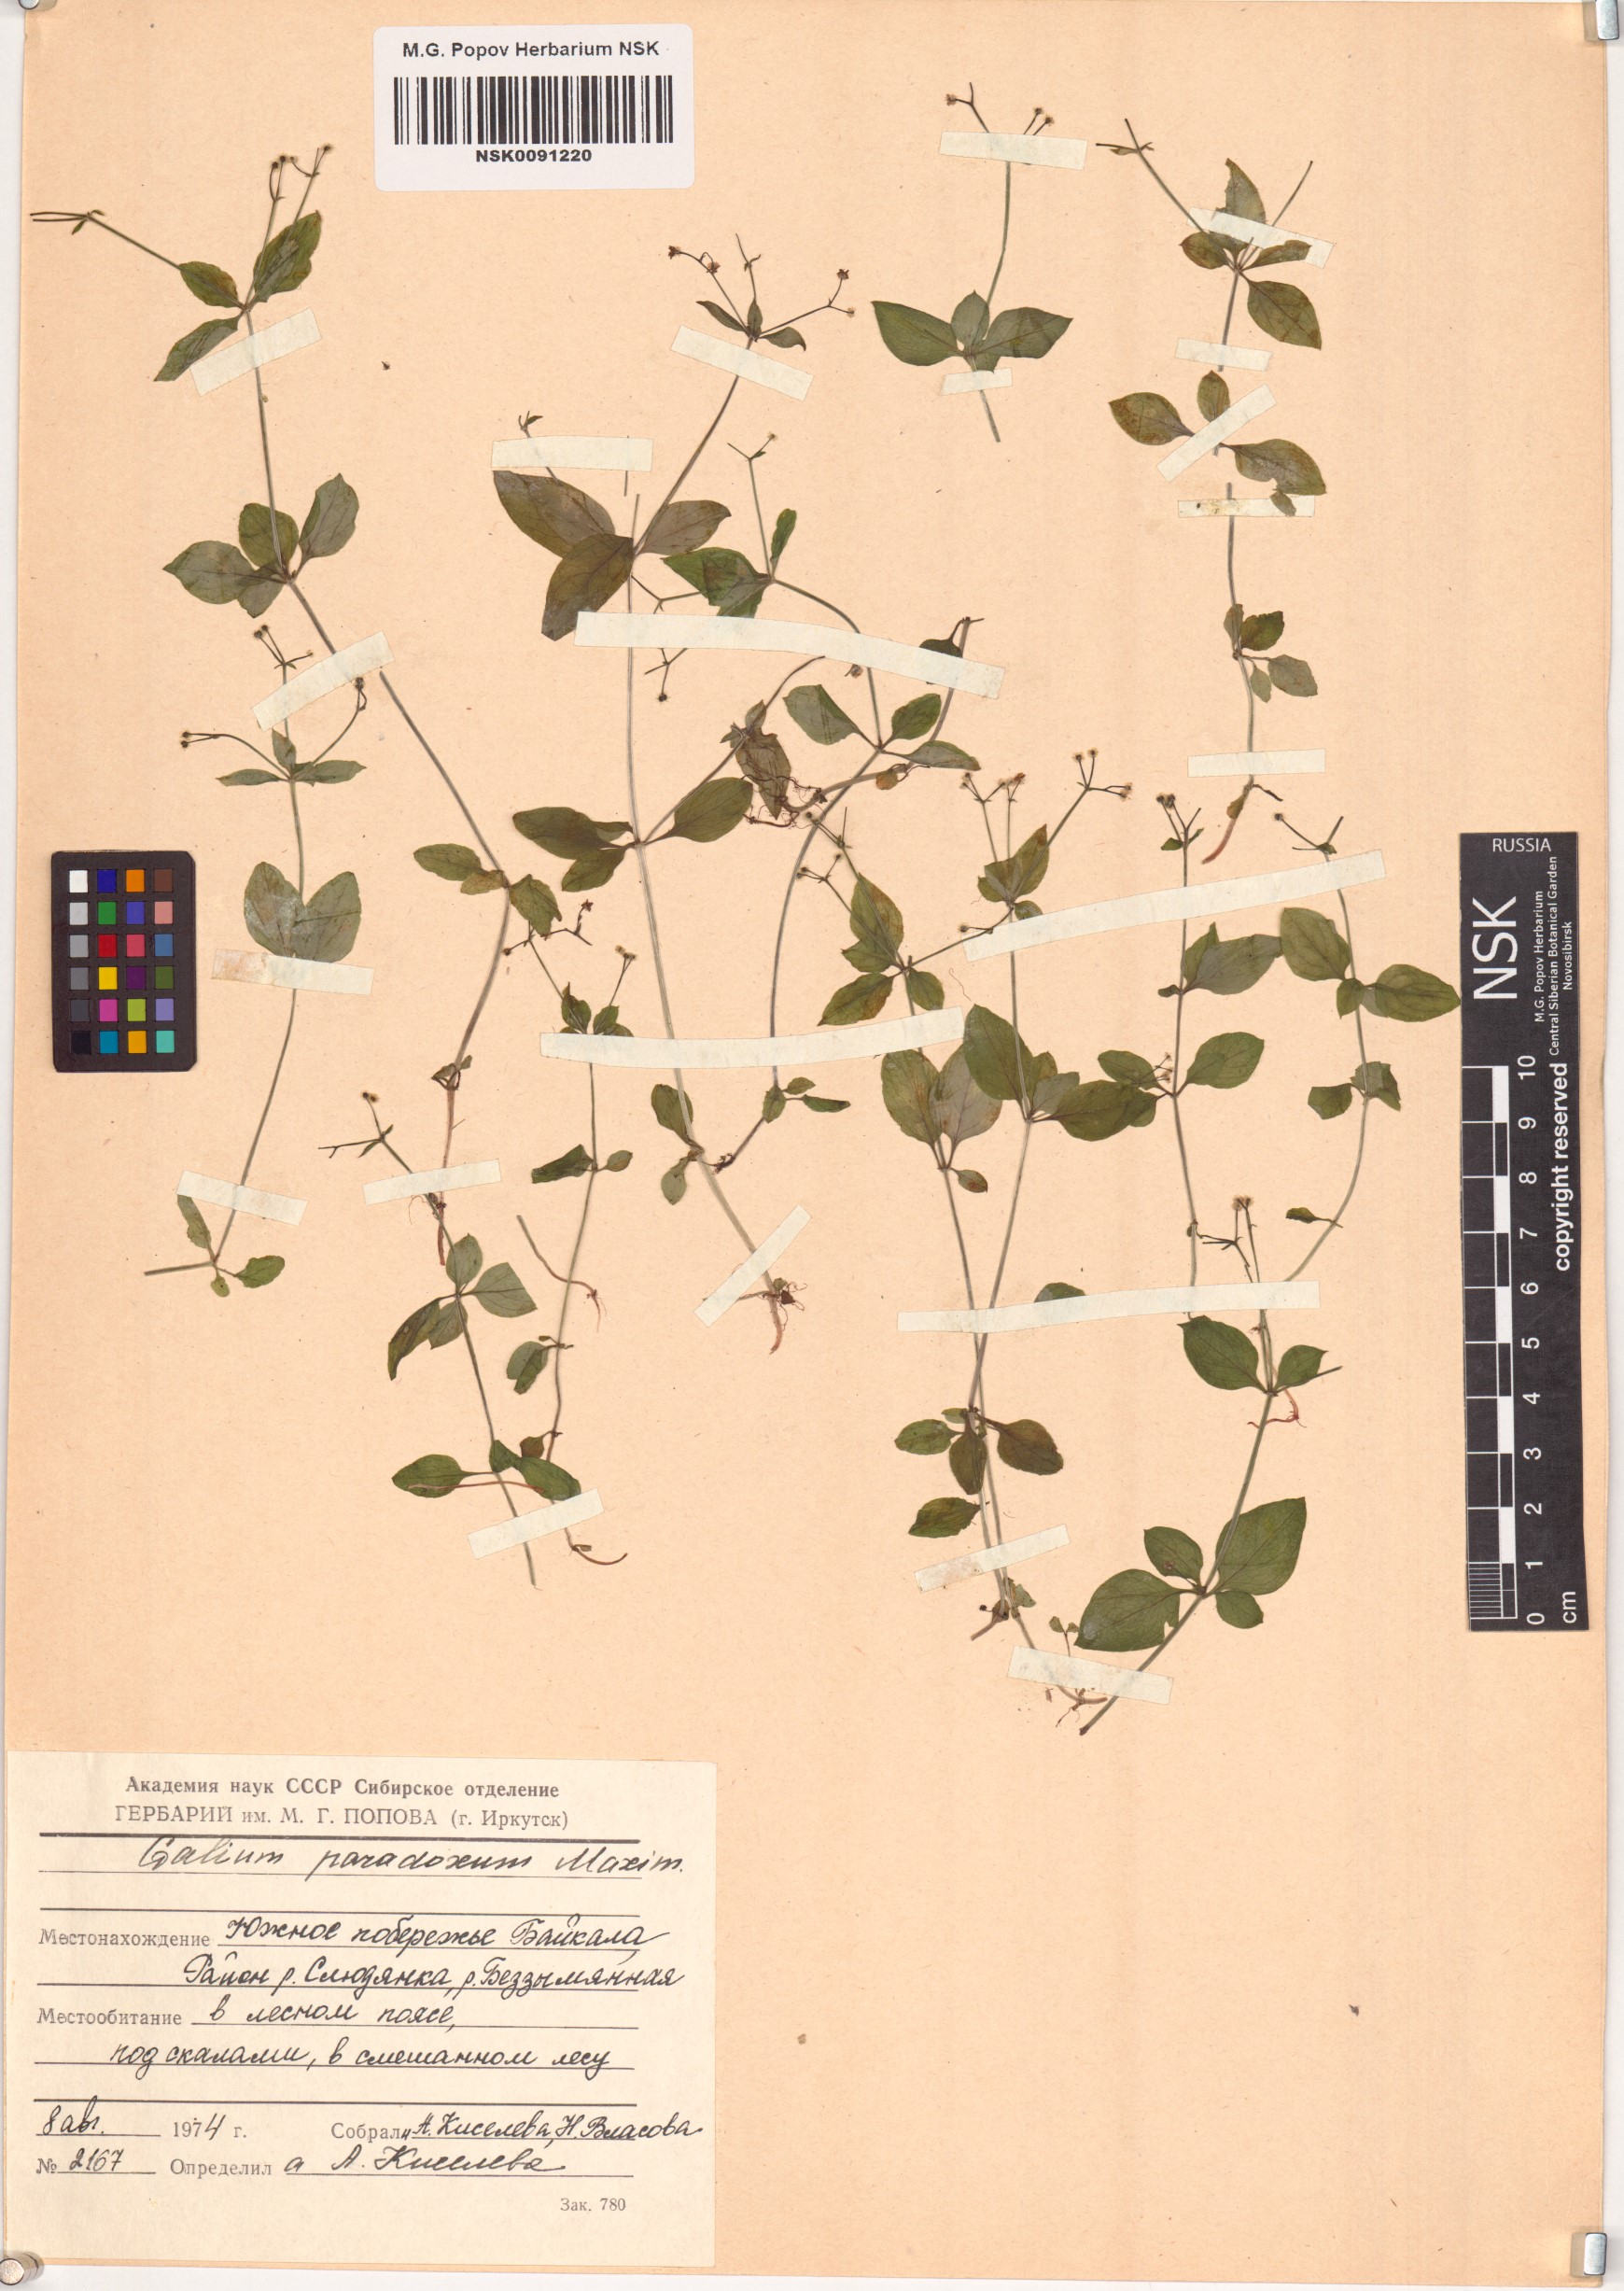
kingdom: Plantae
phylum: Tracheophyta
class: Magnoliopsida
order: Gentianales
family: Rubiaceae
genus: Pseudogalium
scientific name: Pseudogalium paradoxum
